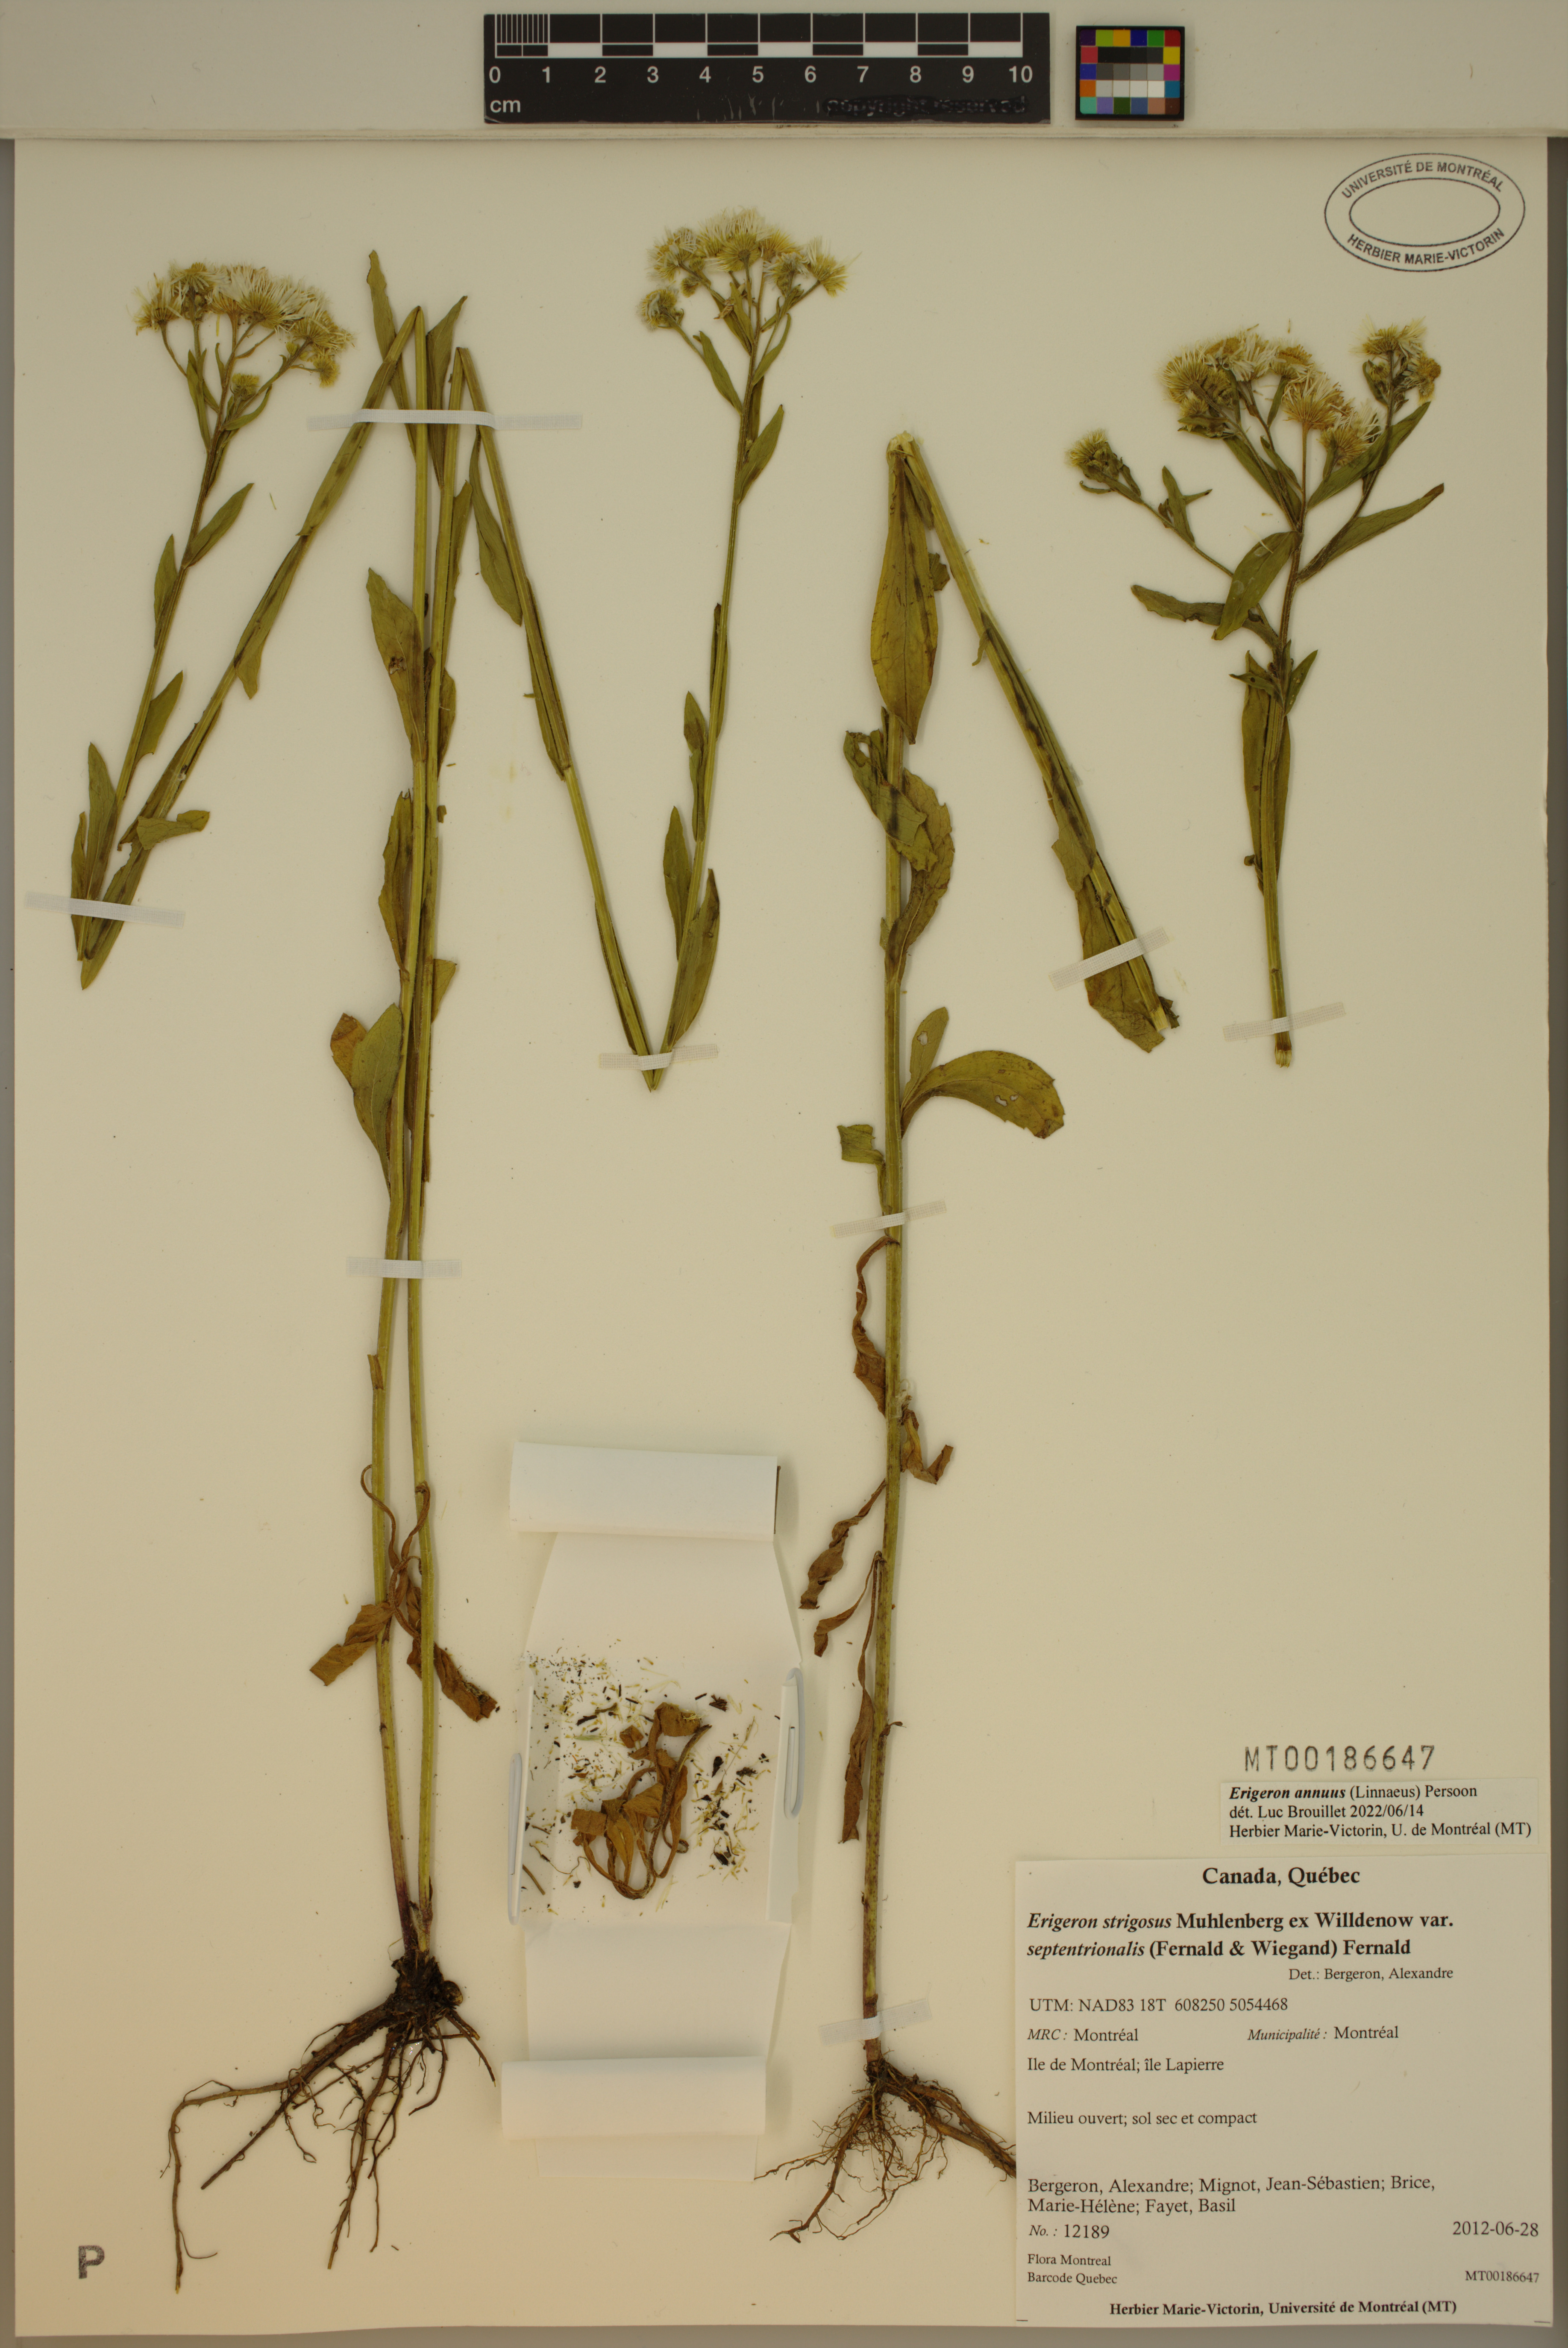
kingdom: Plantae
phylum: Tracheophyta
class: Magnoliopsida
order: Asterales
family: Asteraceae
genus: Erigeron
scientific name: Erigeron annuus
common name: Tall fleabane
